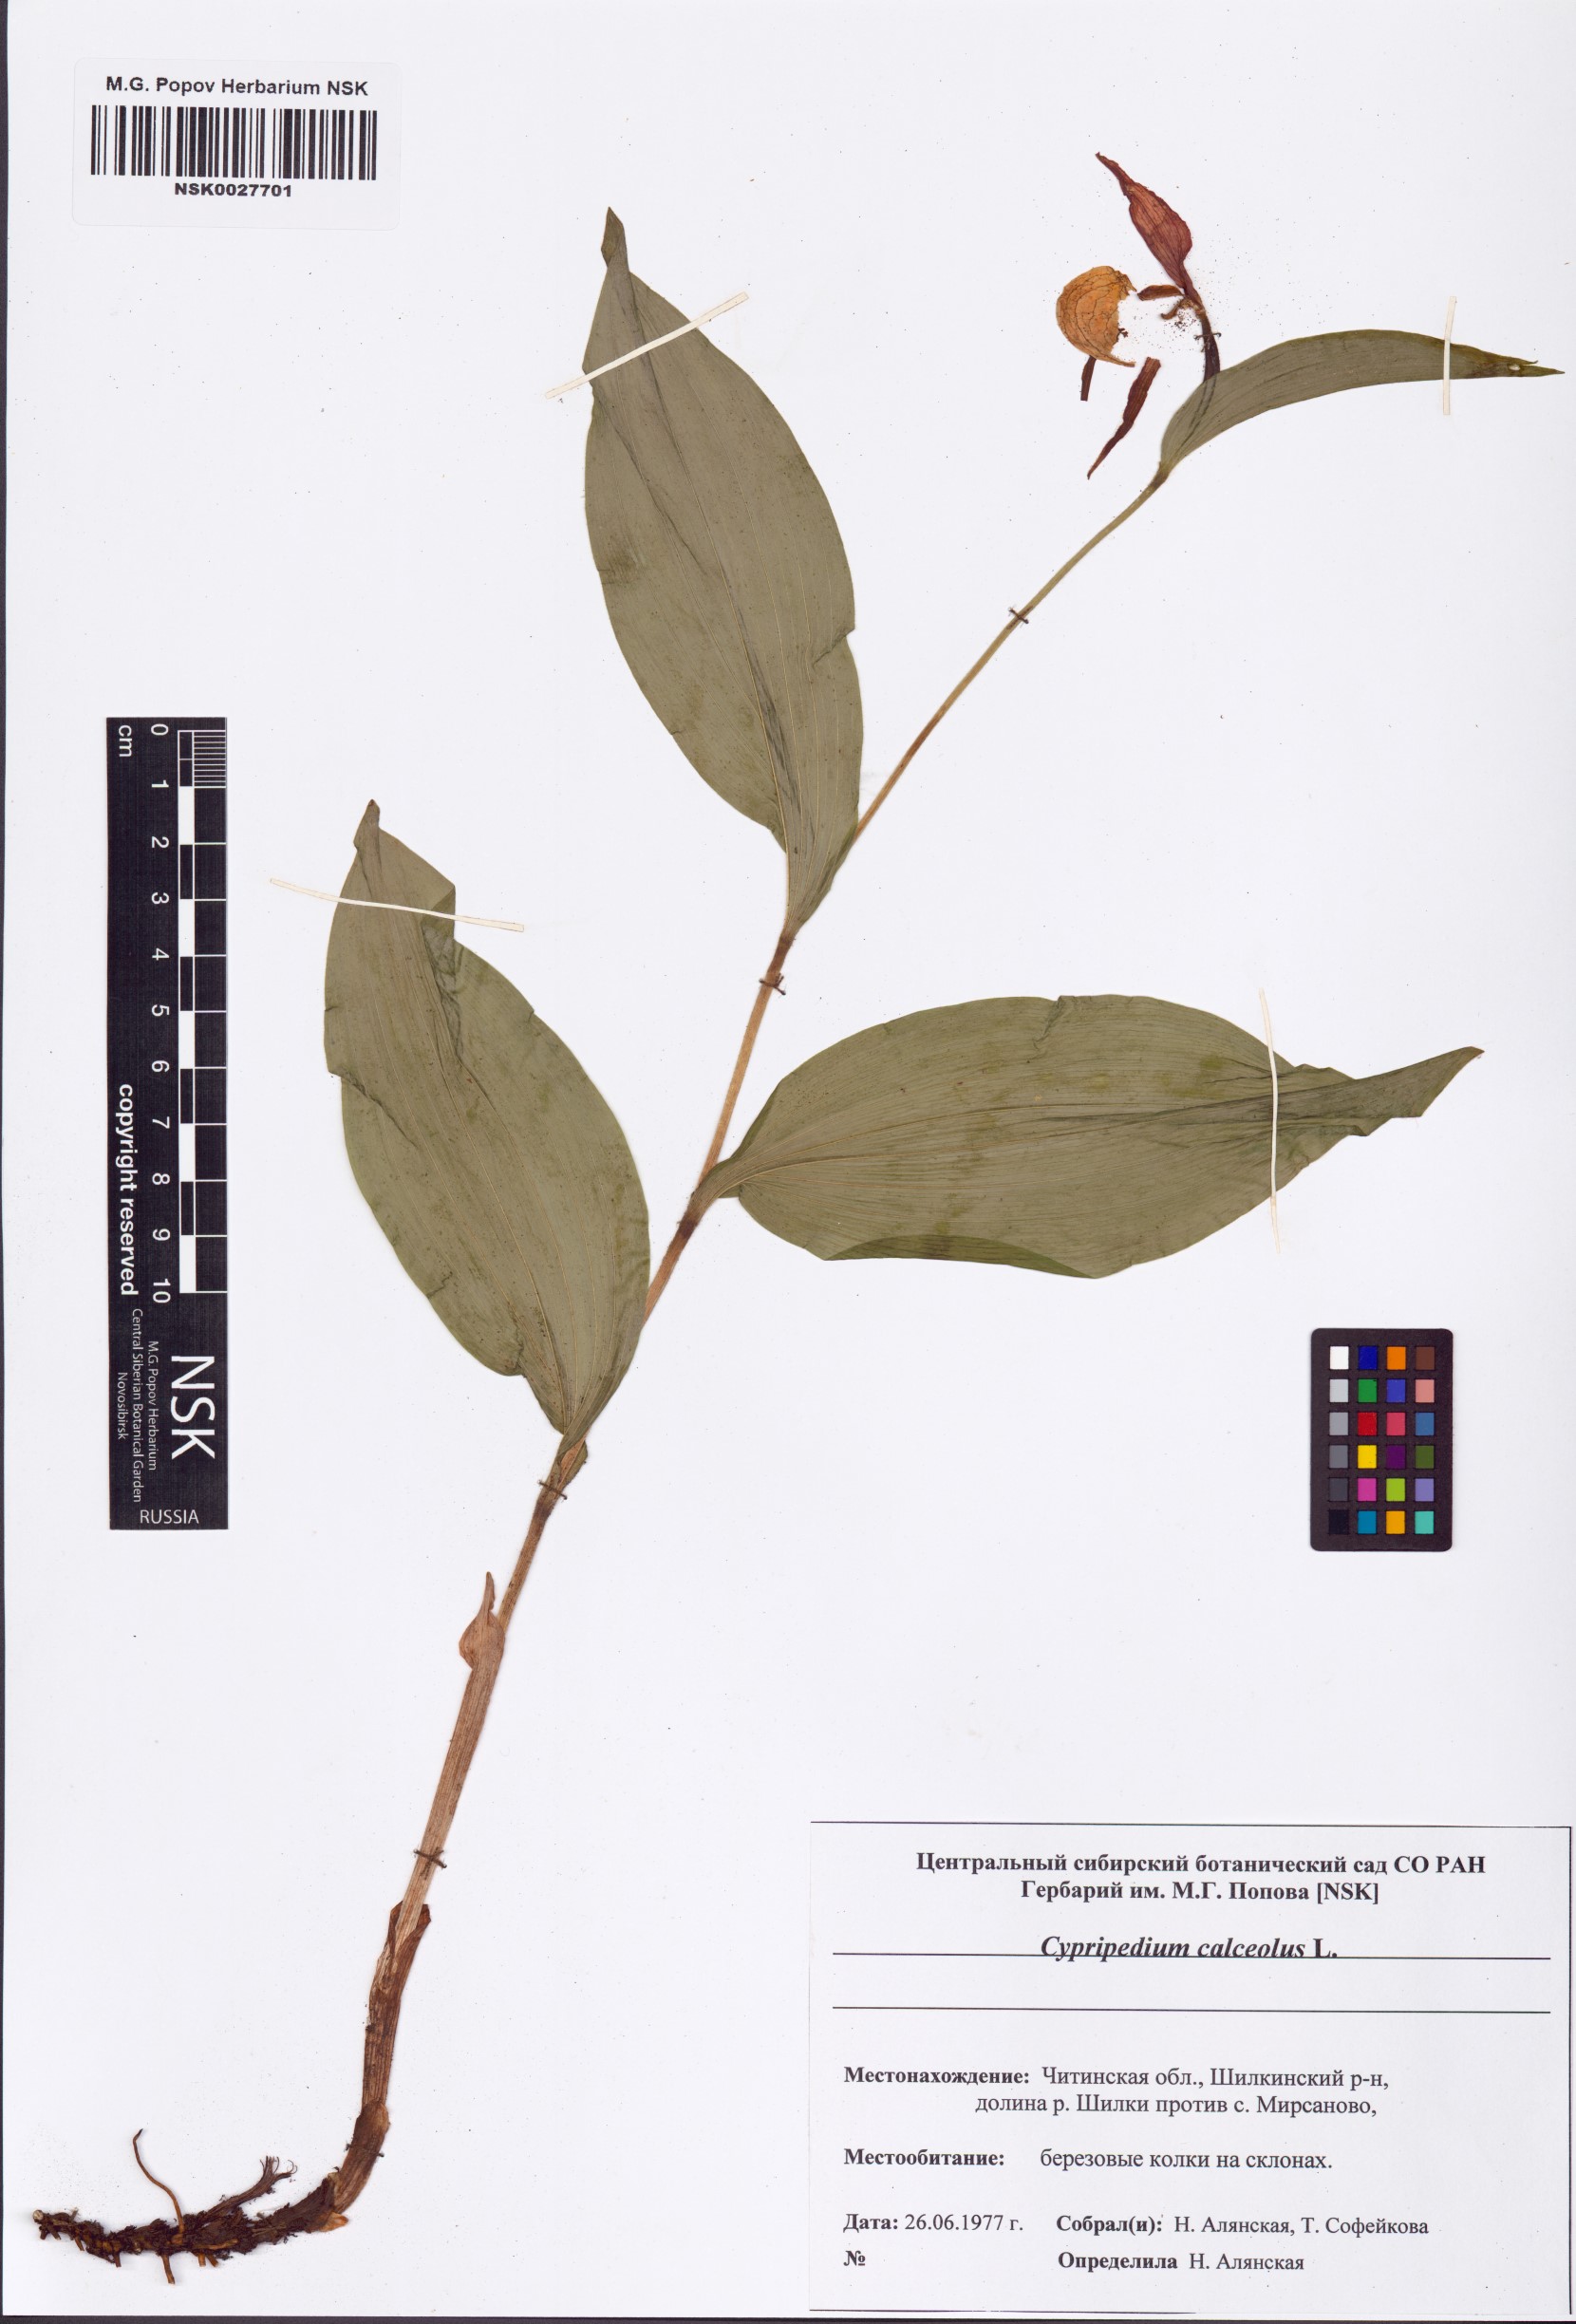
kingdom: Plantae
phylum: Tracheophyta
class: Liliopsida
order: Asparagales
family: Orchidaceae
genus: Cypripedium
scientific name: Cypripedium calceolus
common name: Lady's-slipper
